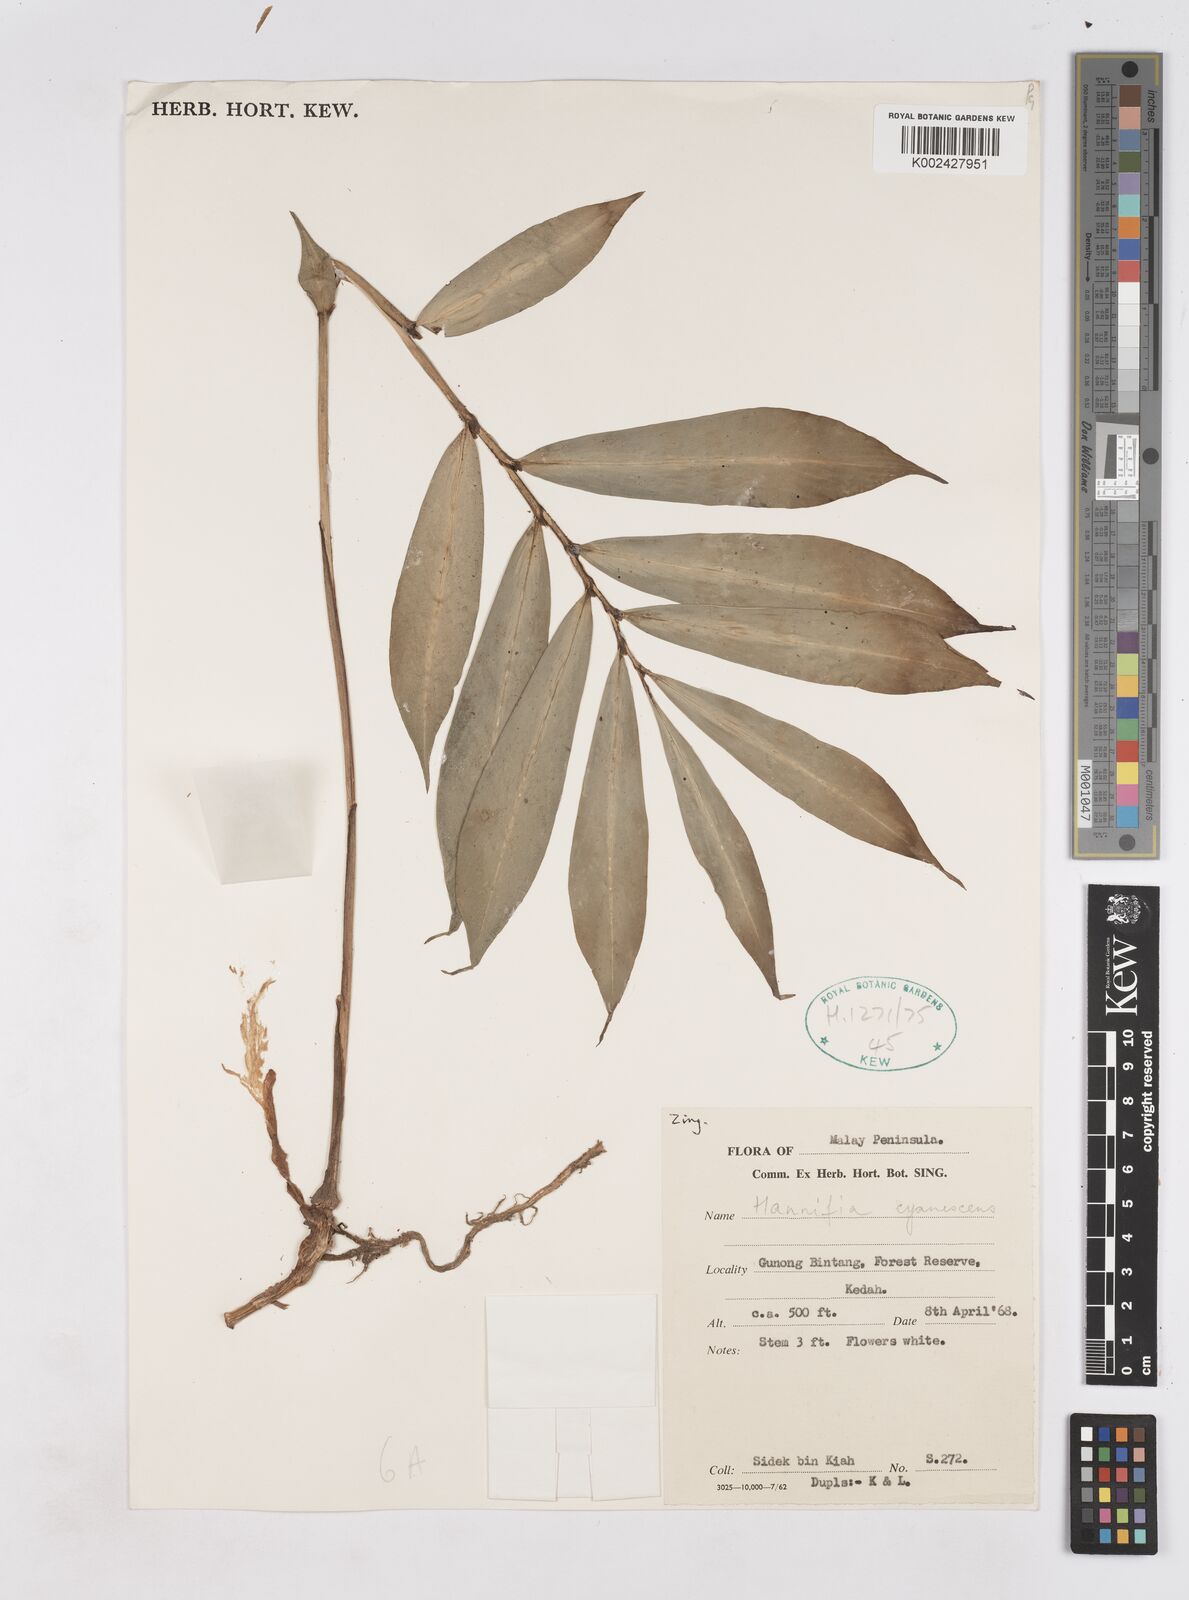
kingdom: Plantae
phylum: Tracheophyta
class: Liliopsida
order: Zingiberales
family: Zingiberaceae
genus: Haniffia
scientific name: Haniffia cyanescens
